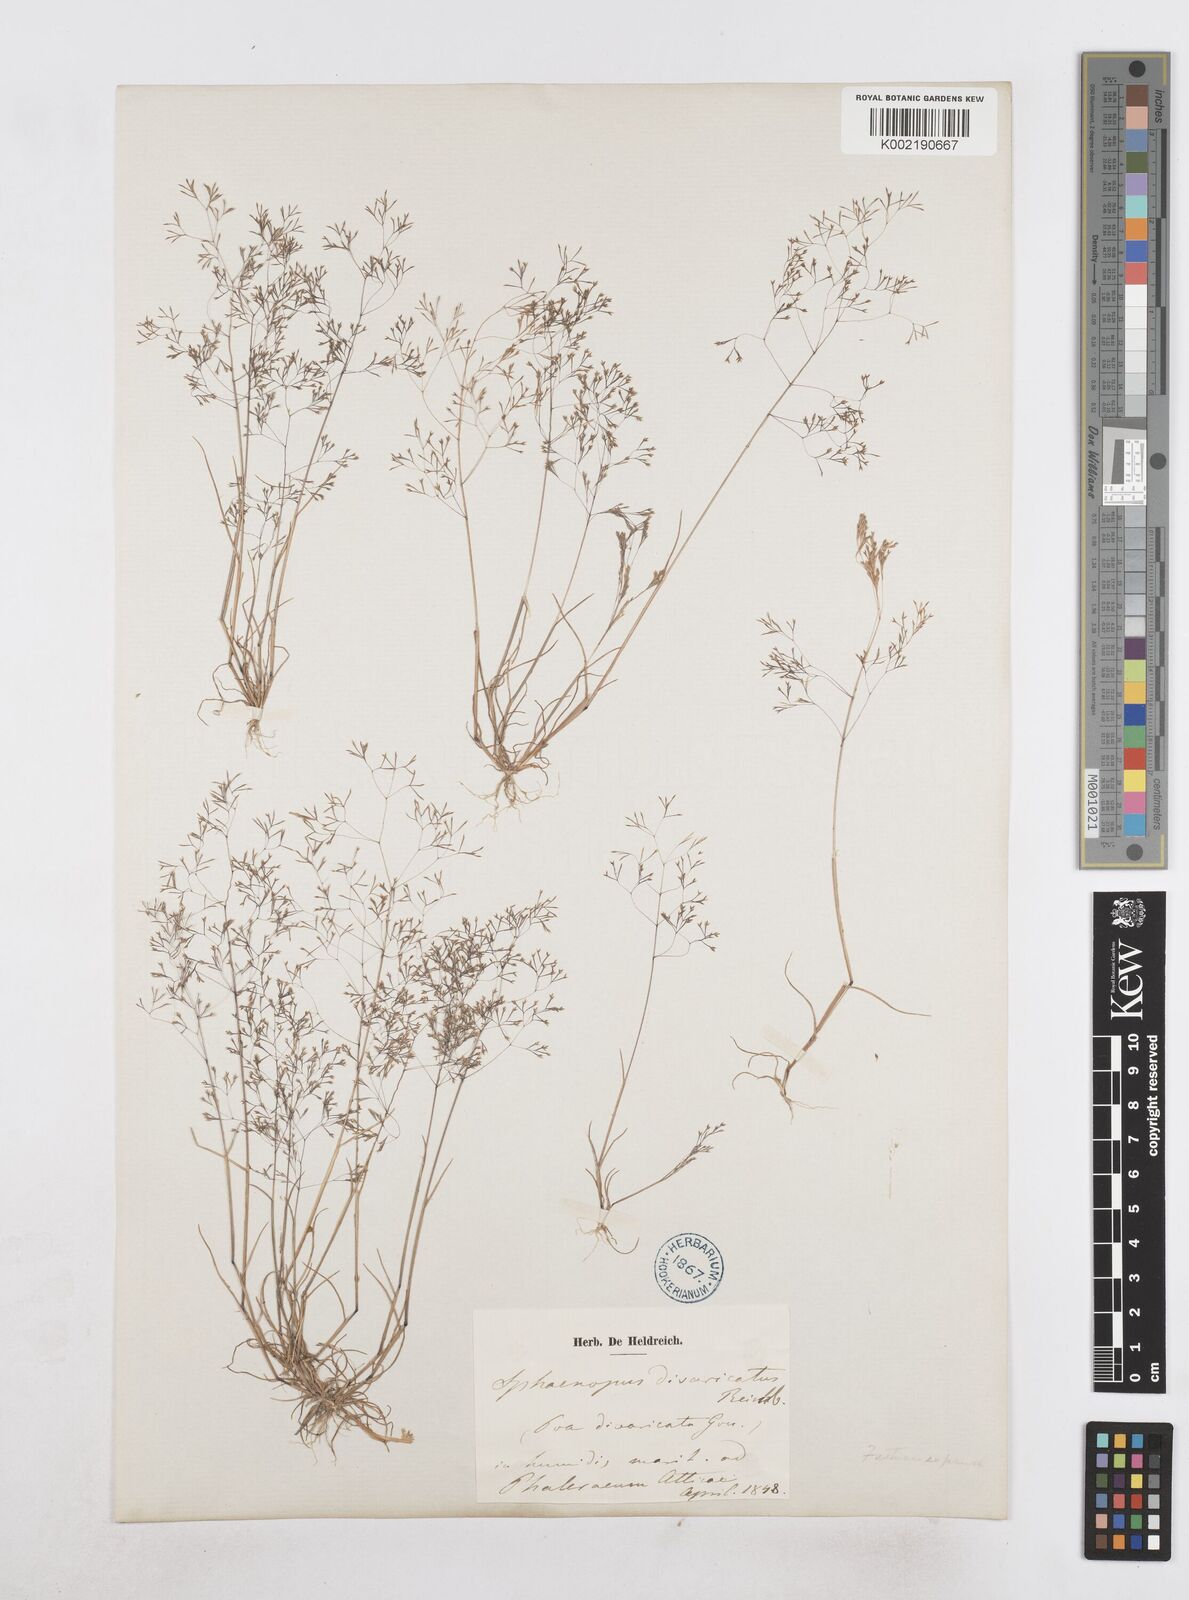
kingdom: Plantae
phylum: Tracheophyta
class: Liliopsida
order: Poales
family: Poaceae
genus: Sphenopus
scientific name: Sphenopus divaricatus
